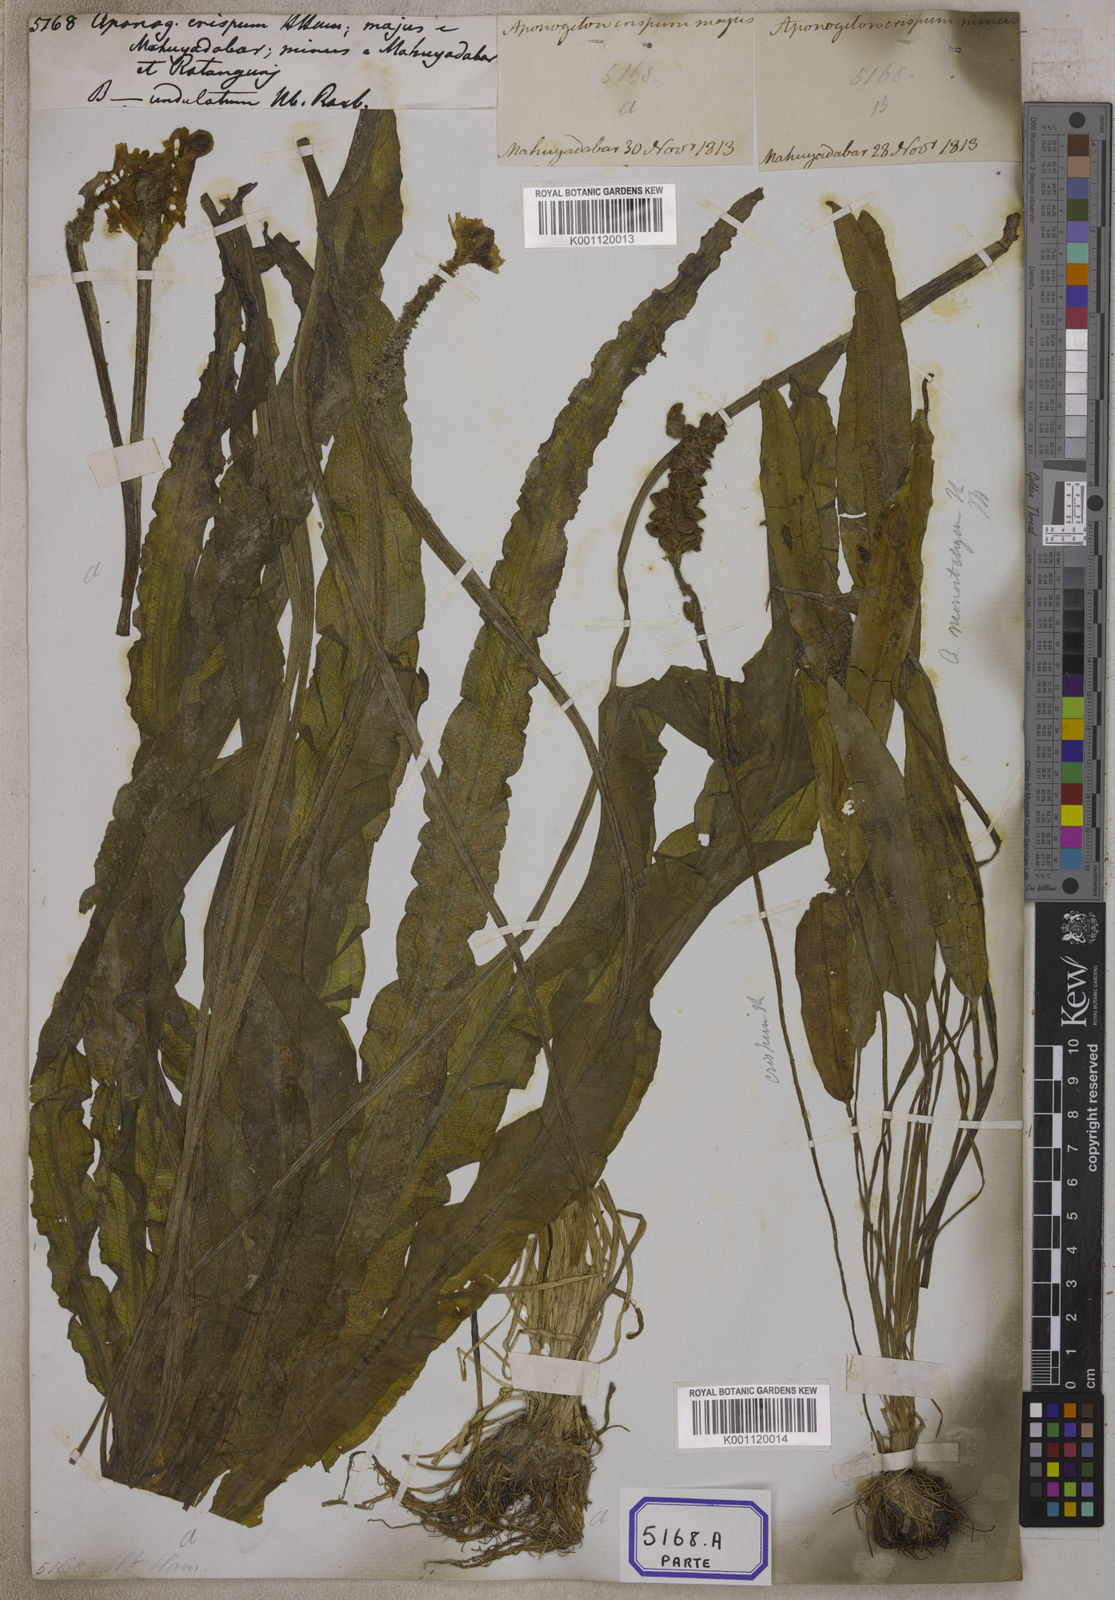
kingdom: Plantae
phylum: Tracheophyta
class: Liliopsida
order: Alismatales
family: Aponogetonaceae
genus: Aponogeton
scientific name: Aponogeton crispus
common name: Crinkled aponogeton
